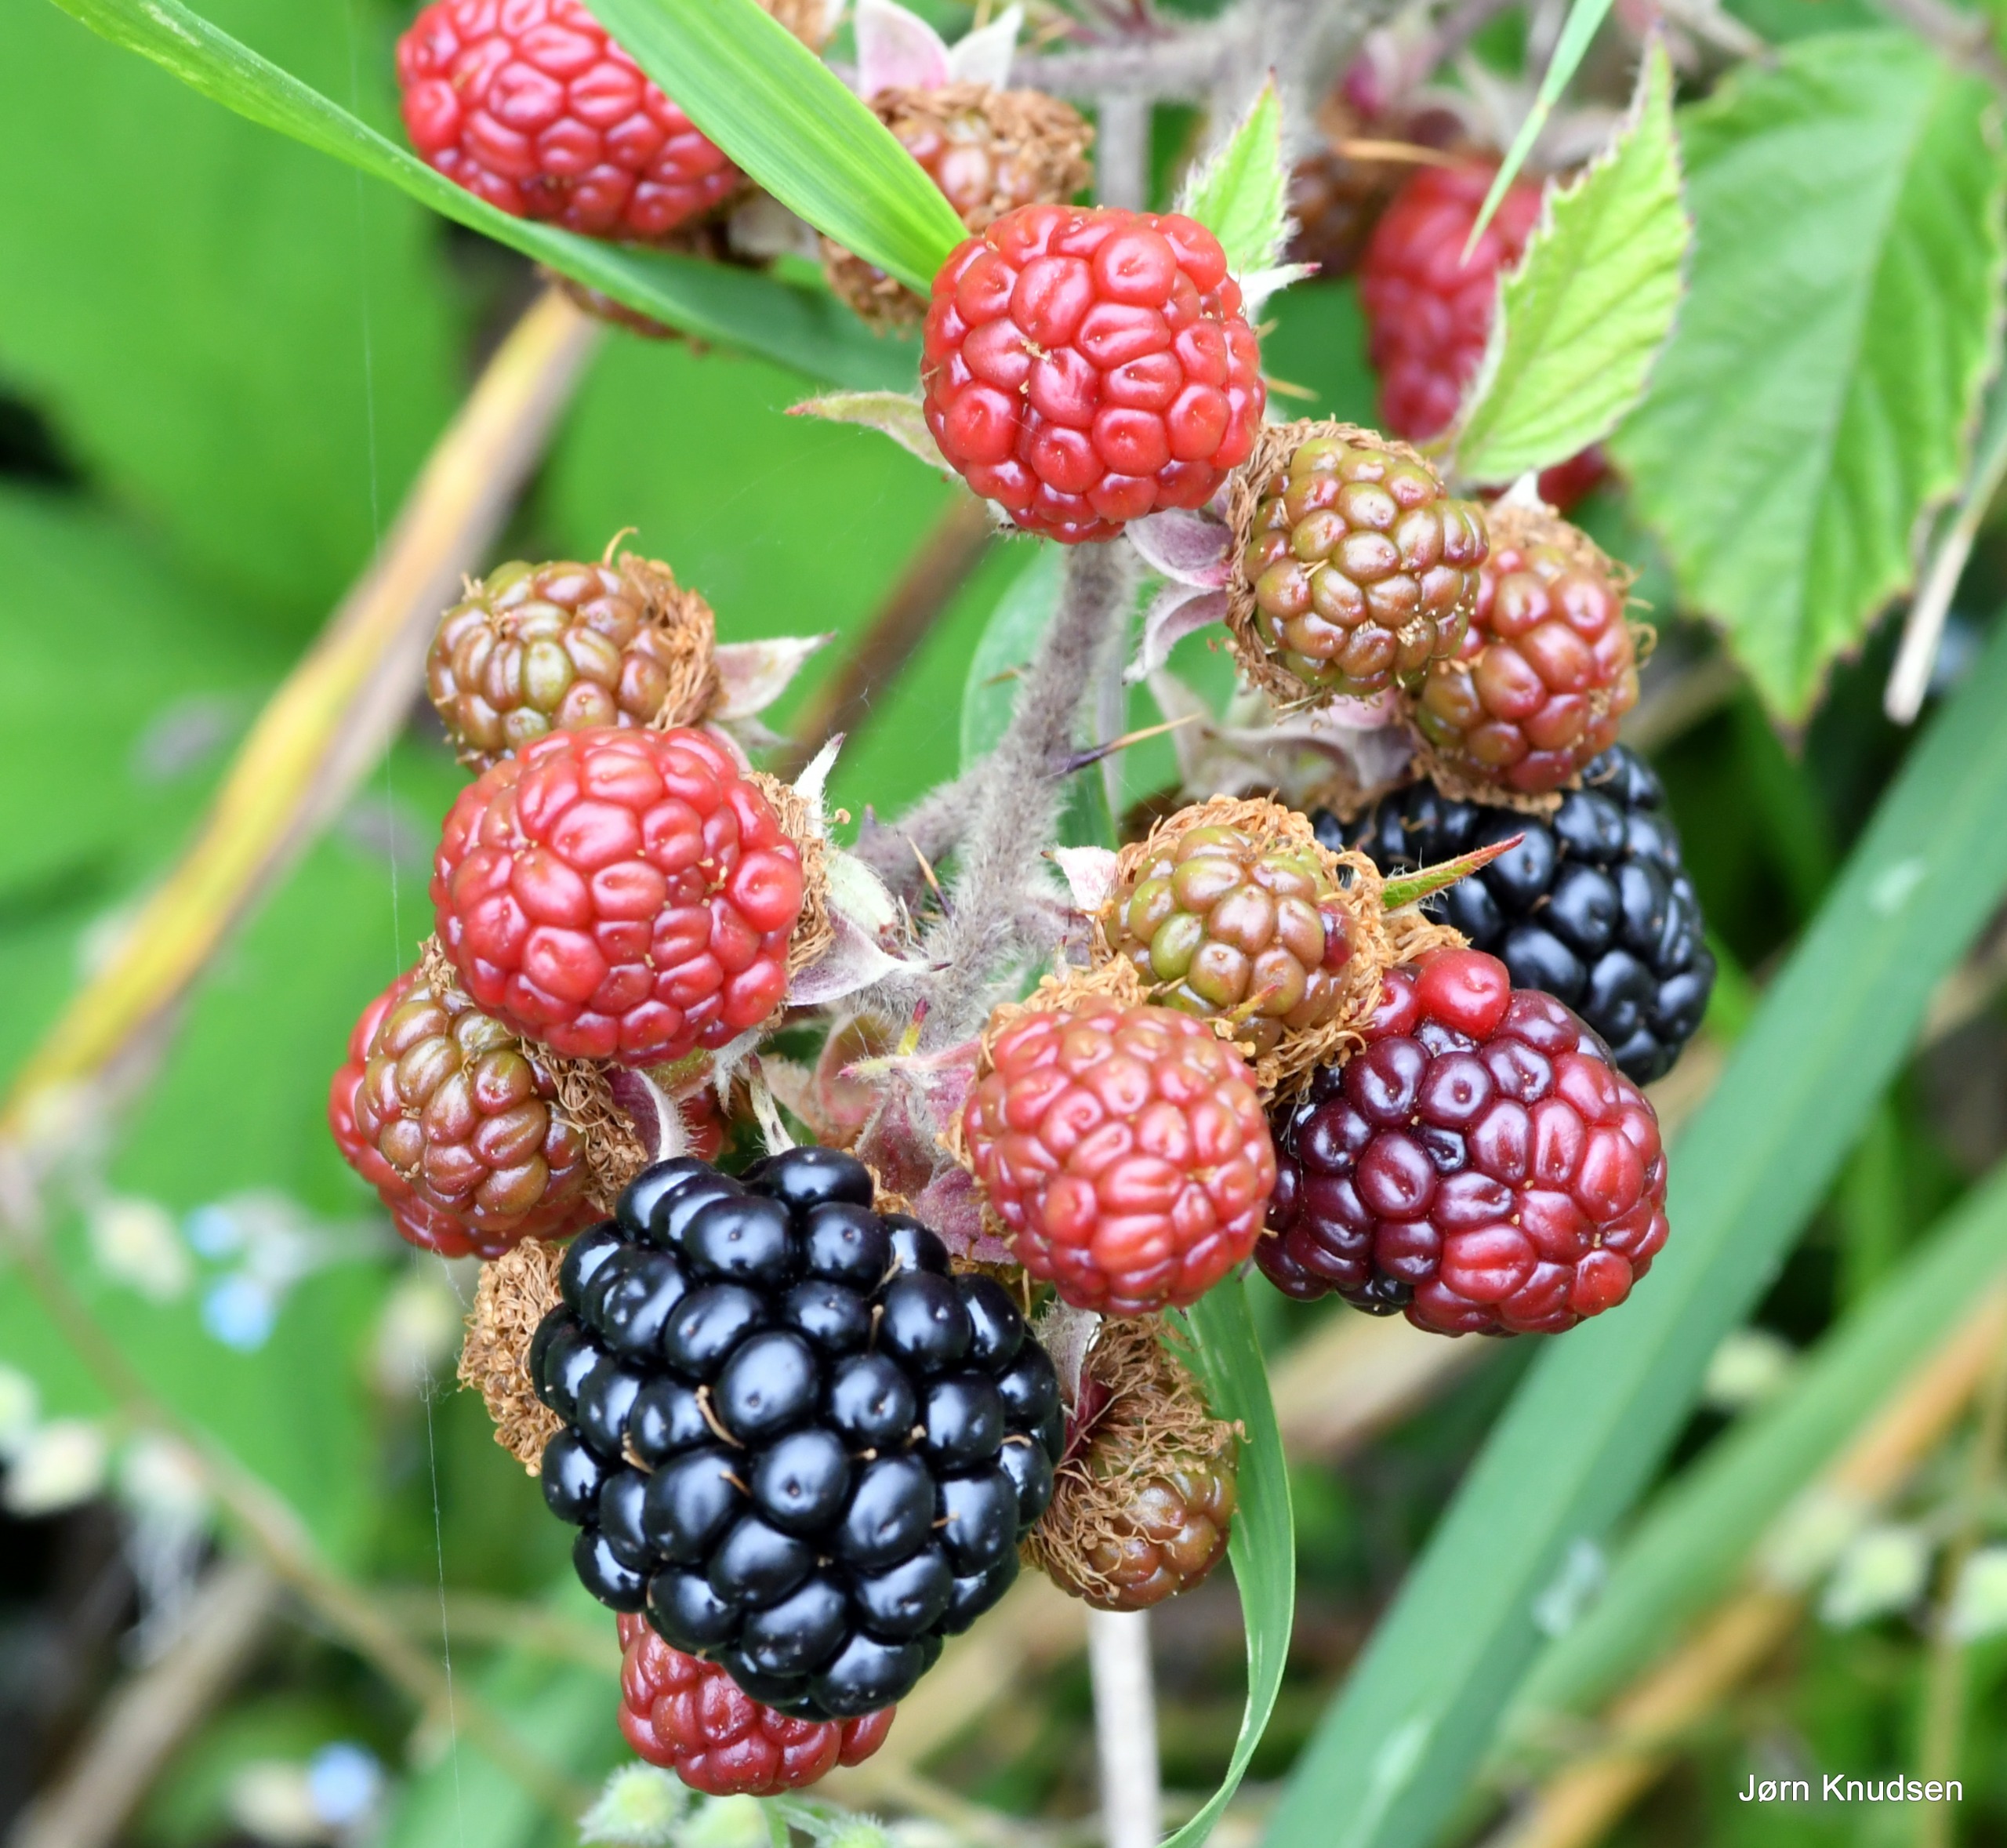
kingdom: Plantae
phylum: Tracheophyta
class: Magnoliopsida
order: Rosales
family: Rosaceae
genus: Rubus
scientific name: Rubus
